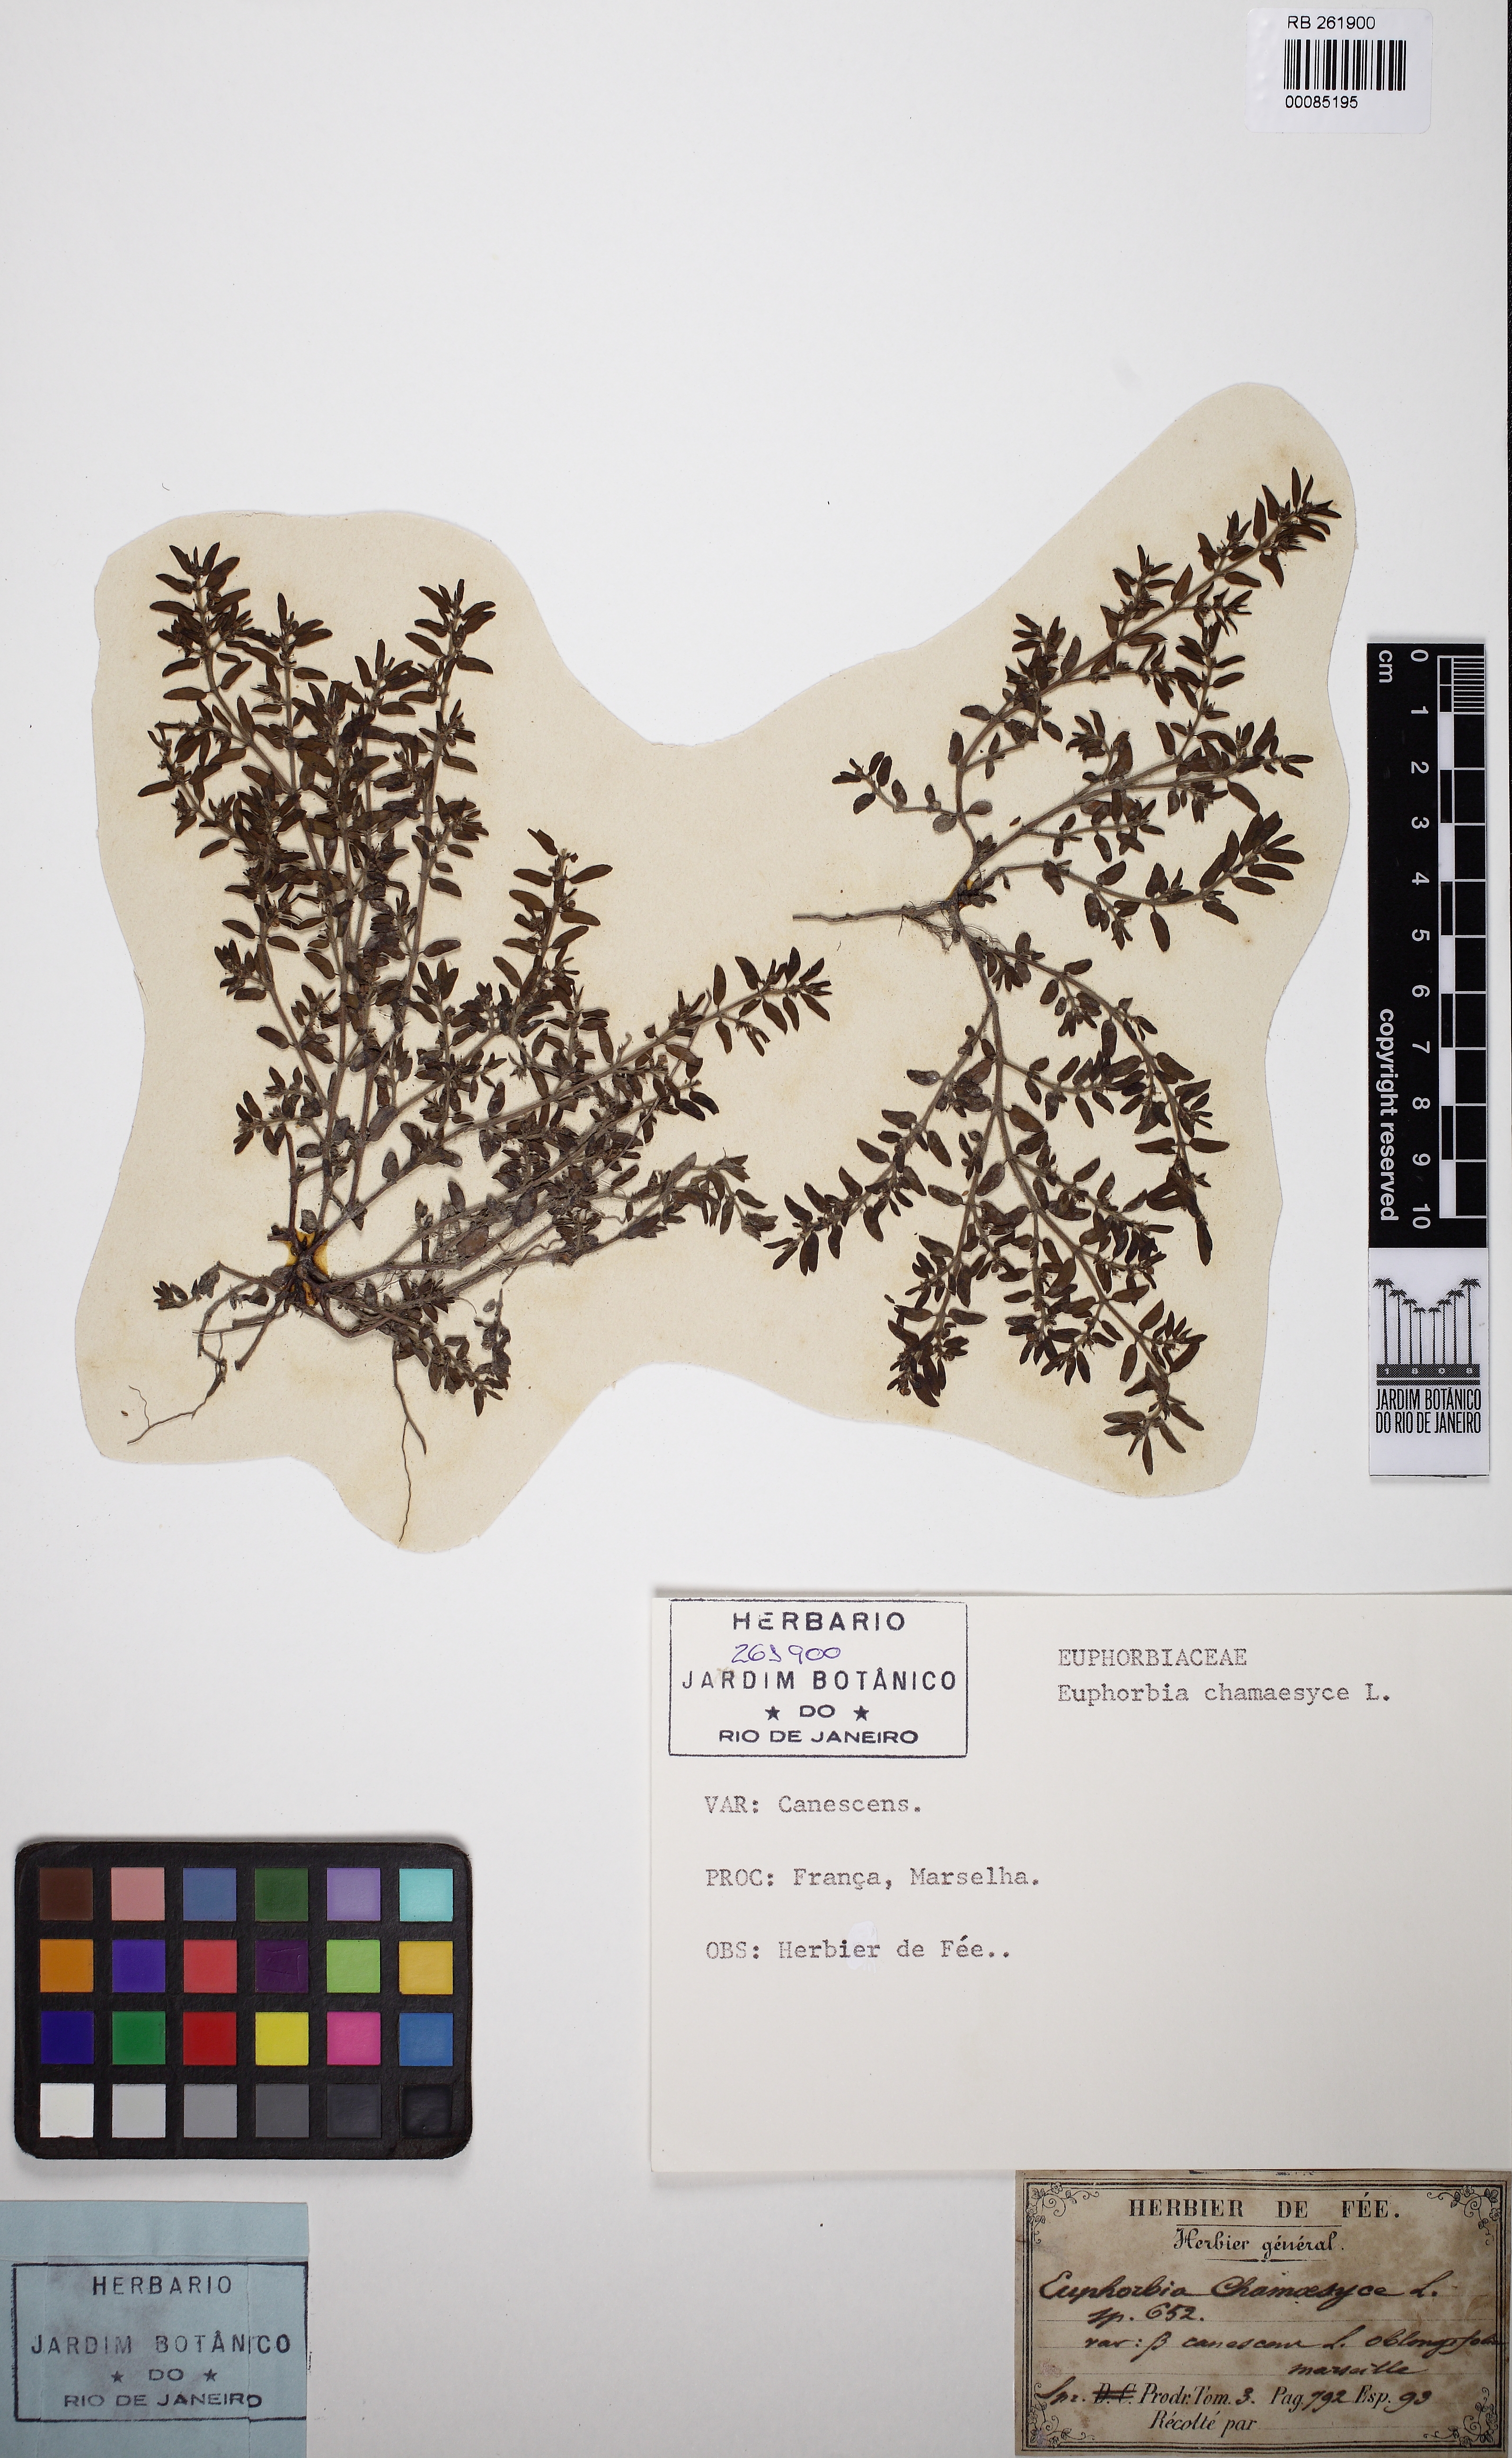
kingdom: Plantae
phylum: Tracheophyta
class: Magnoliopsida
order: Malpighiales
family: Euphorbiaceae
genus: Euphorbia
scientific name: Euphorbia chamaesyce
